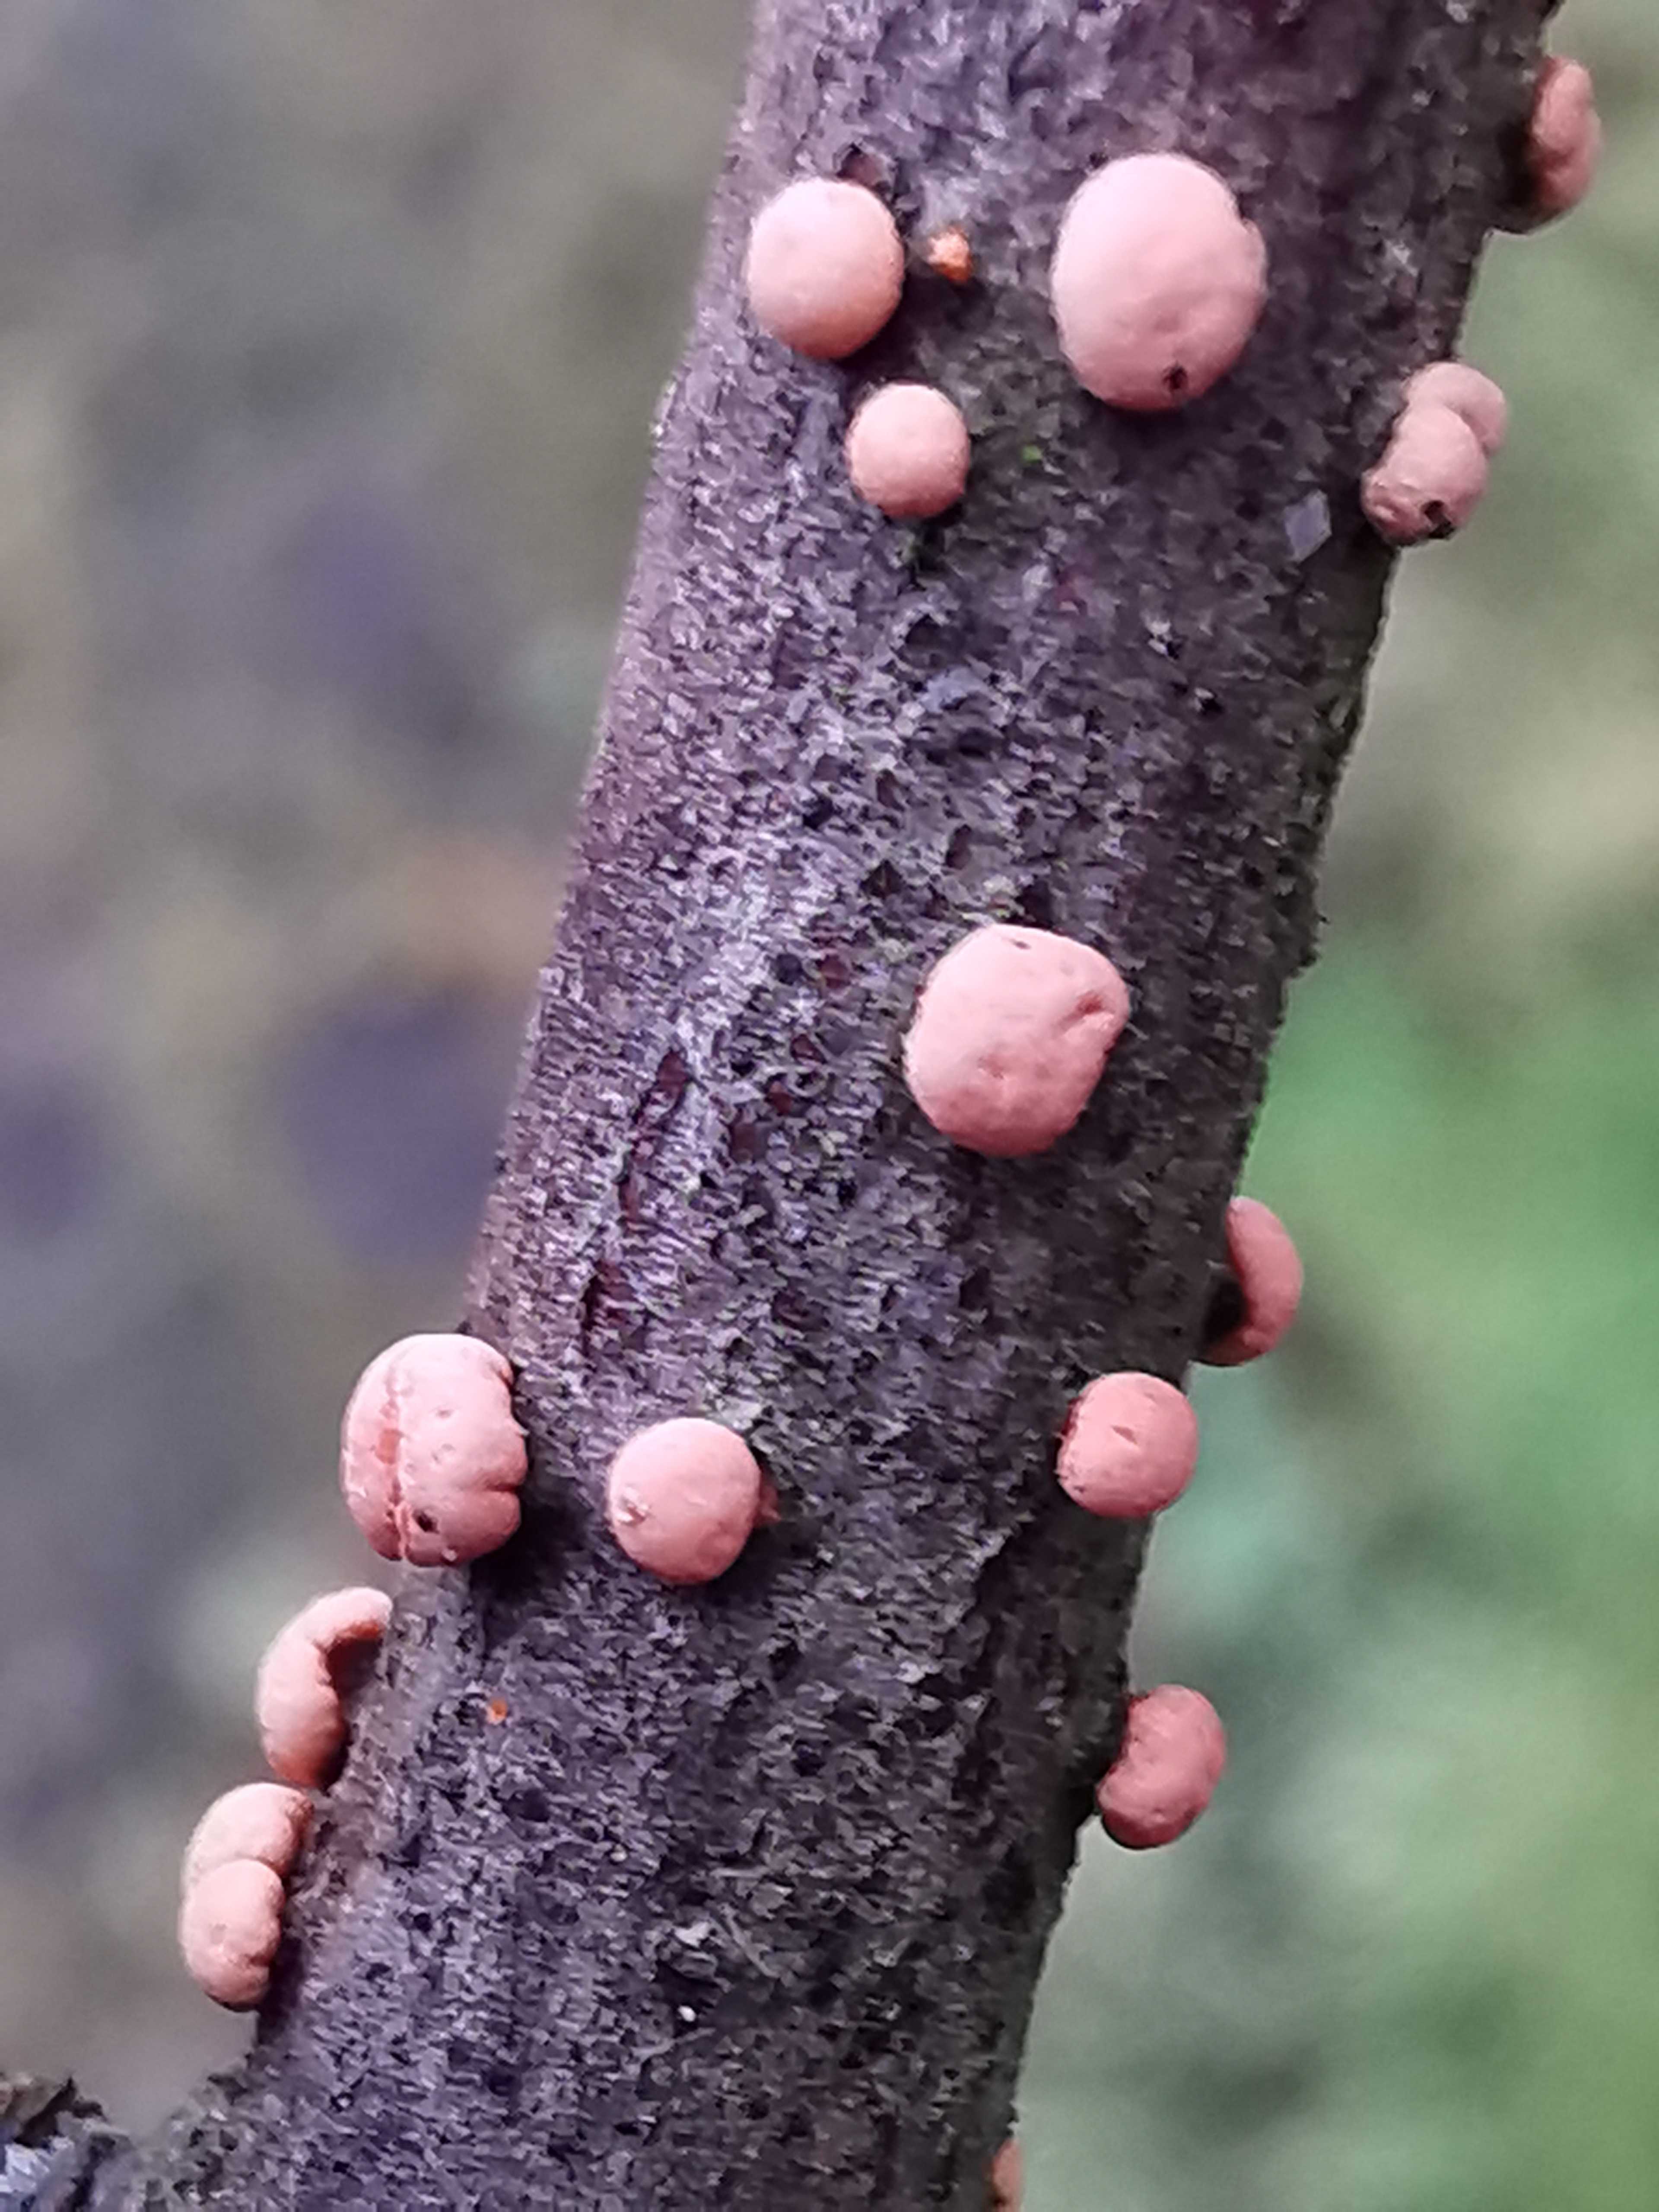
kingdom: Fungi
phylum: Ascomycota
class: Sordariomycetes
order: Hypocreales
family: Nectriaceae
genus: Nectria
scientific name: Nectria cinnabarina
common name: almindelig cinnobersvamp
